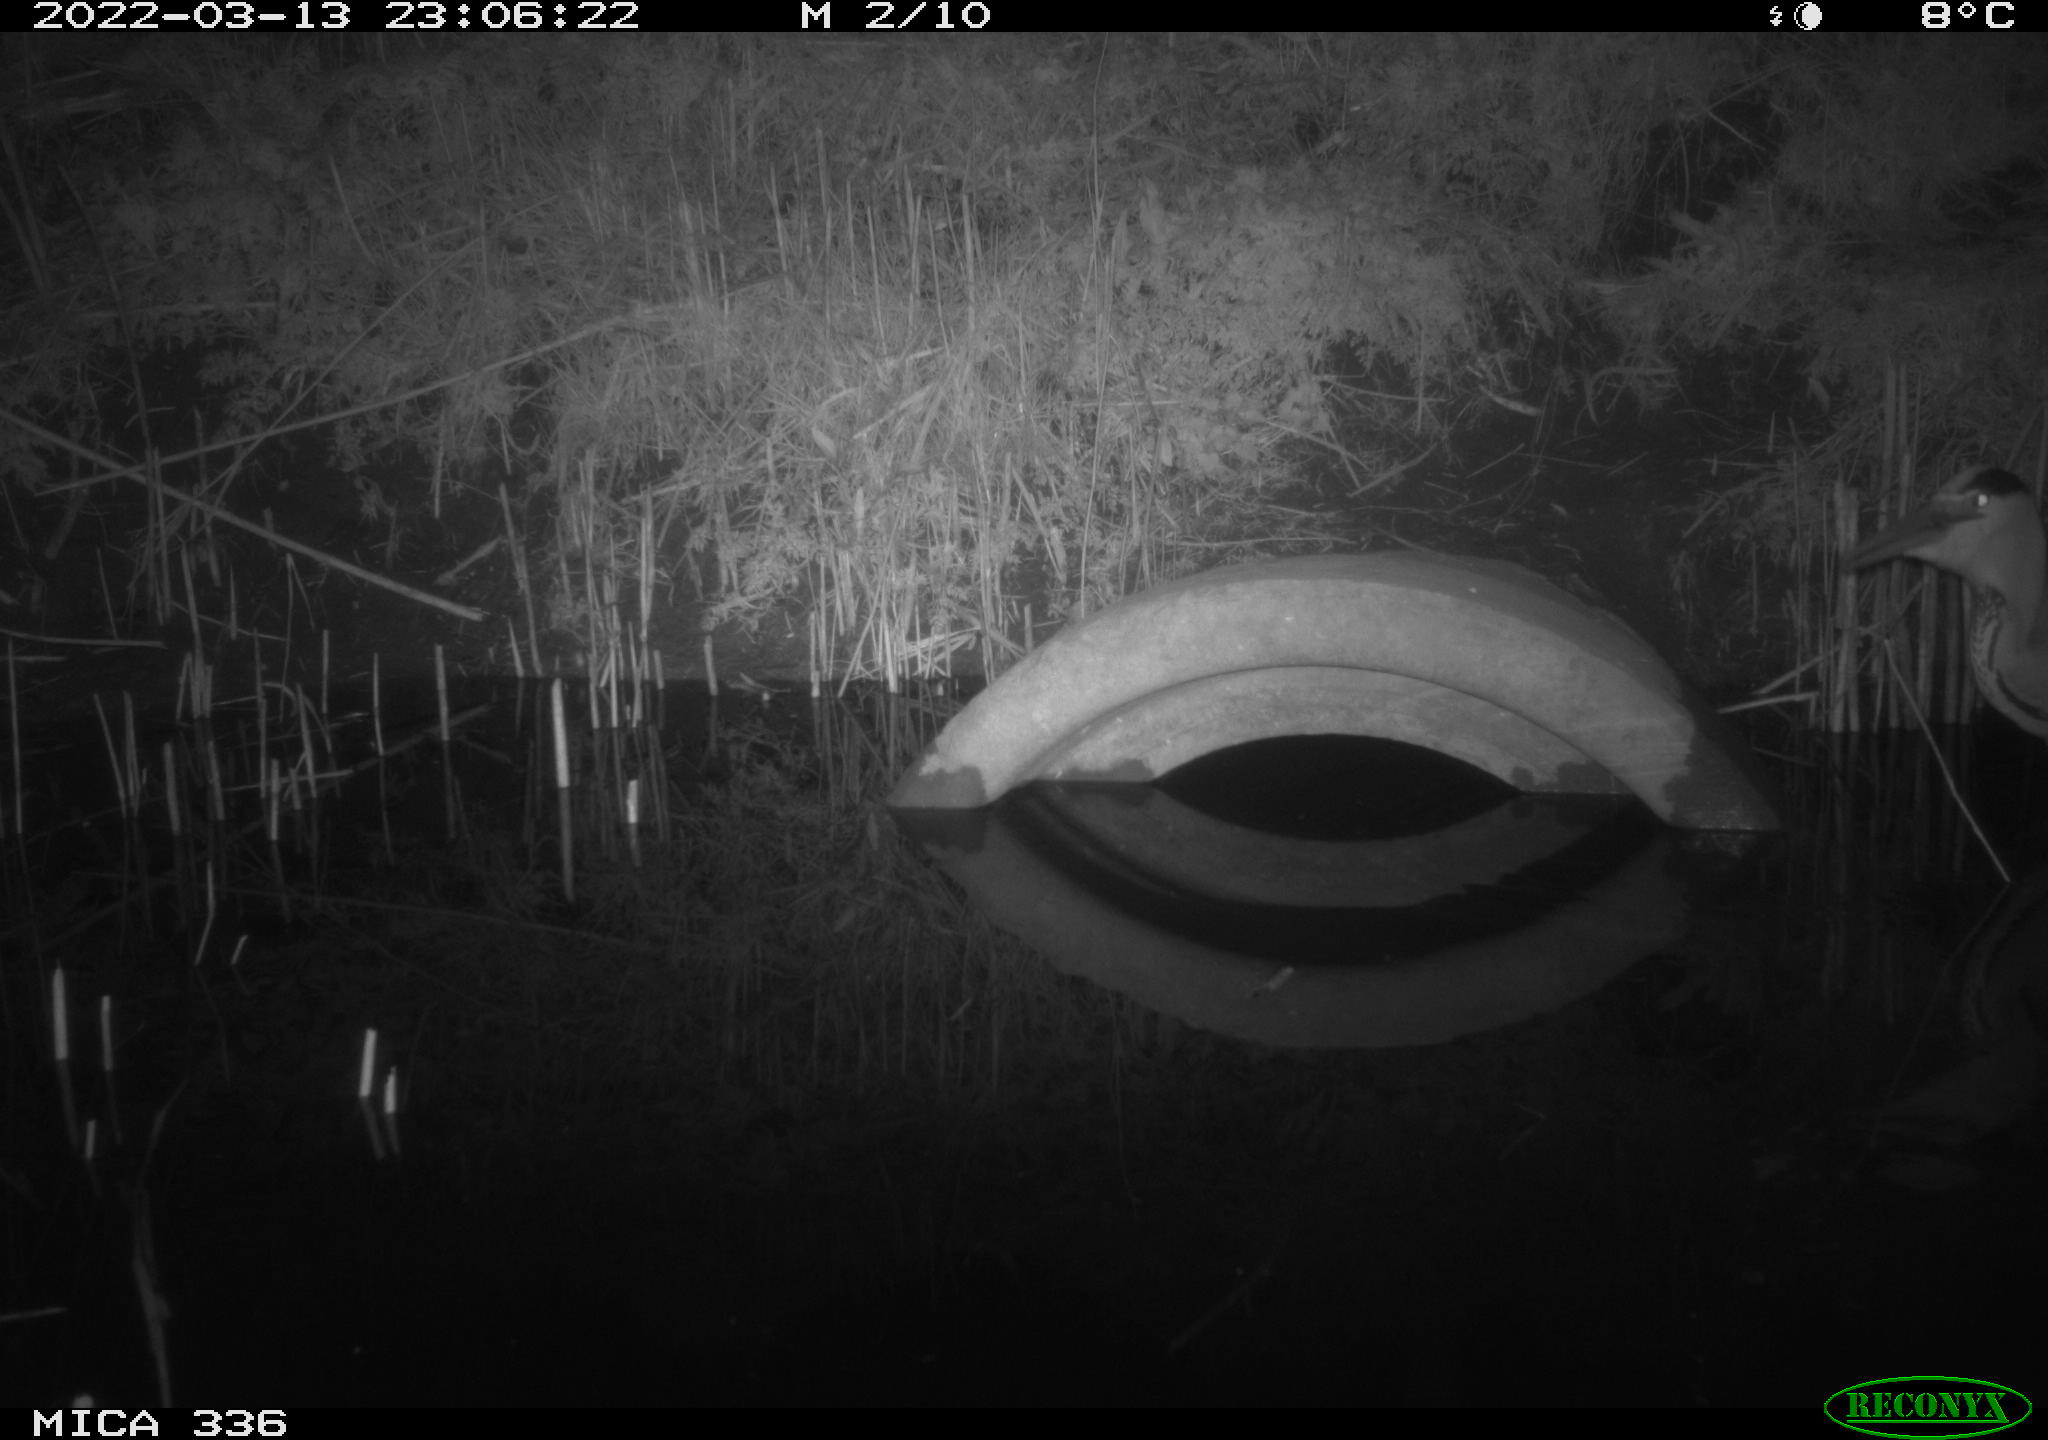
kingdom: Animalia
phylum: Chordata
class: Aves
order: Pelecaniformes
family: Ardeidae
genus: Ardea
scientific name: Ardea cinerea
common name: Grey heron
